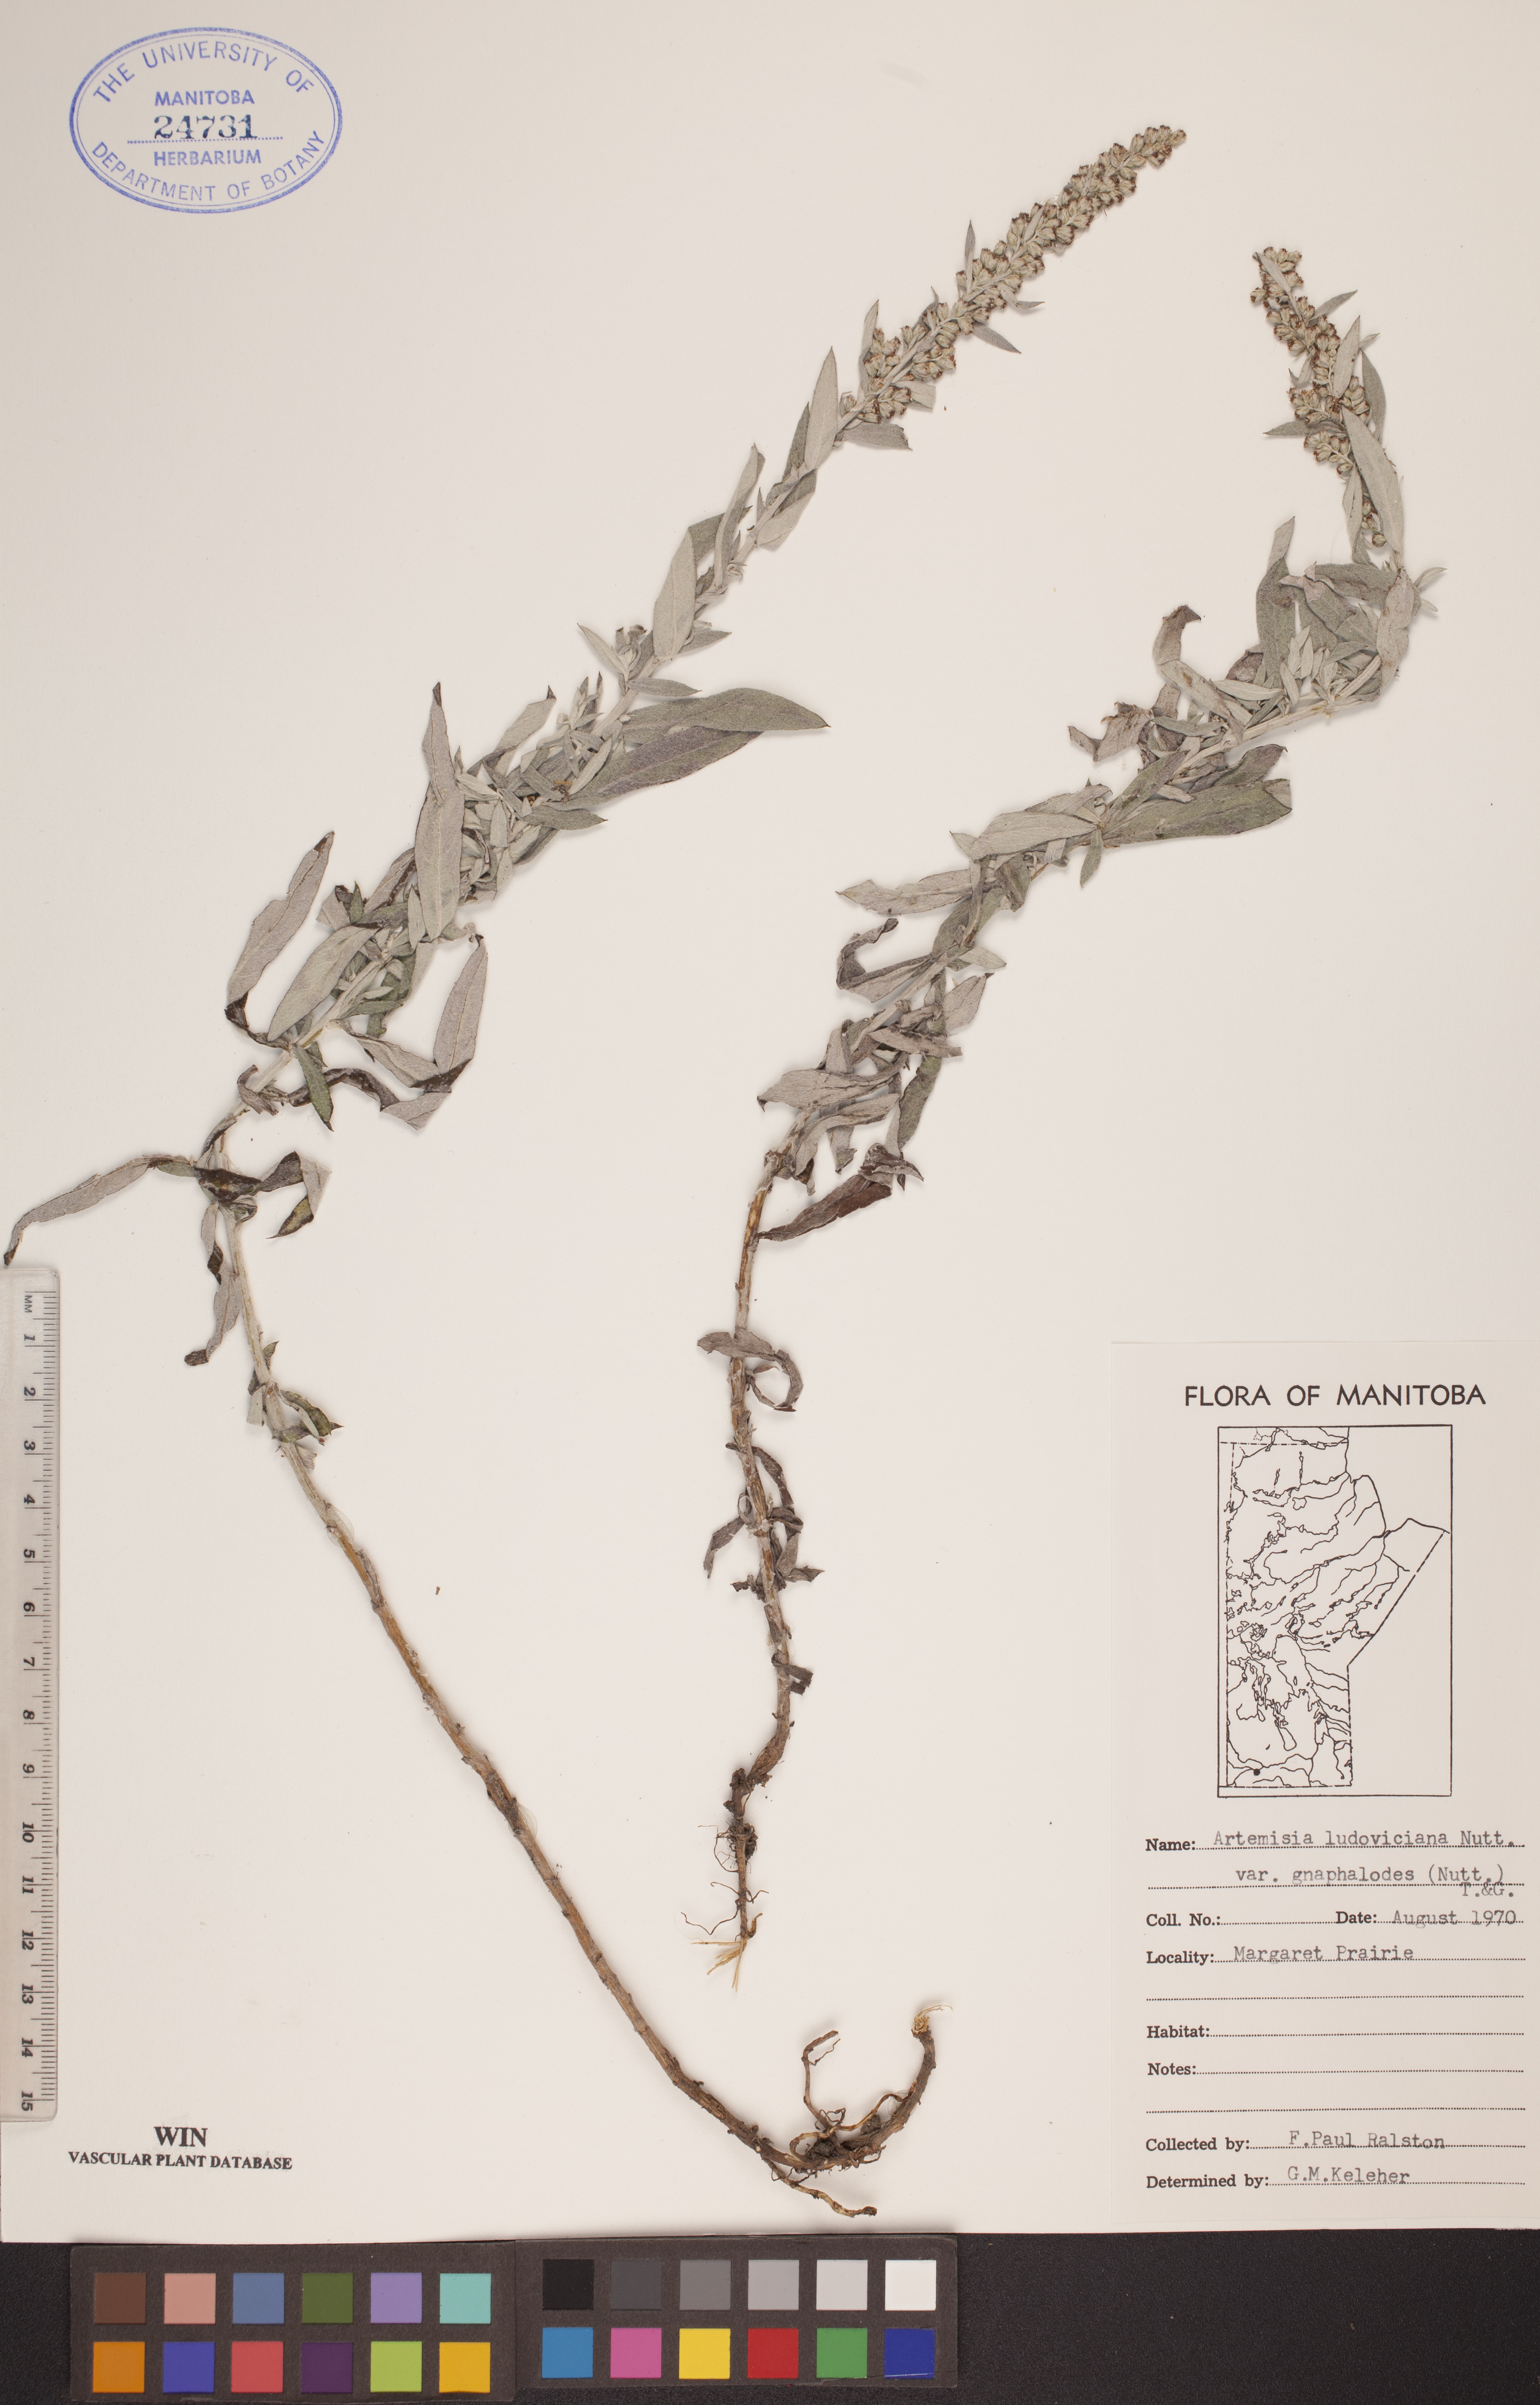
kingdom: Plantae
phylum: Tracheophyta
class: Magnoliopsida
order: Asterales
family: Asteraceae
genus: Artemisia
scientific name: Artemisia ludoviciana
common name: Western mugwort
